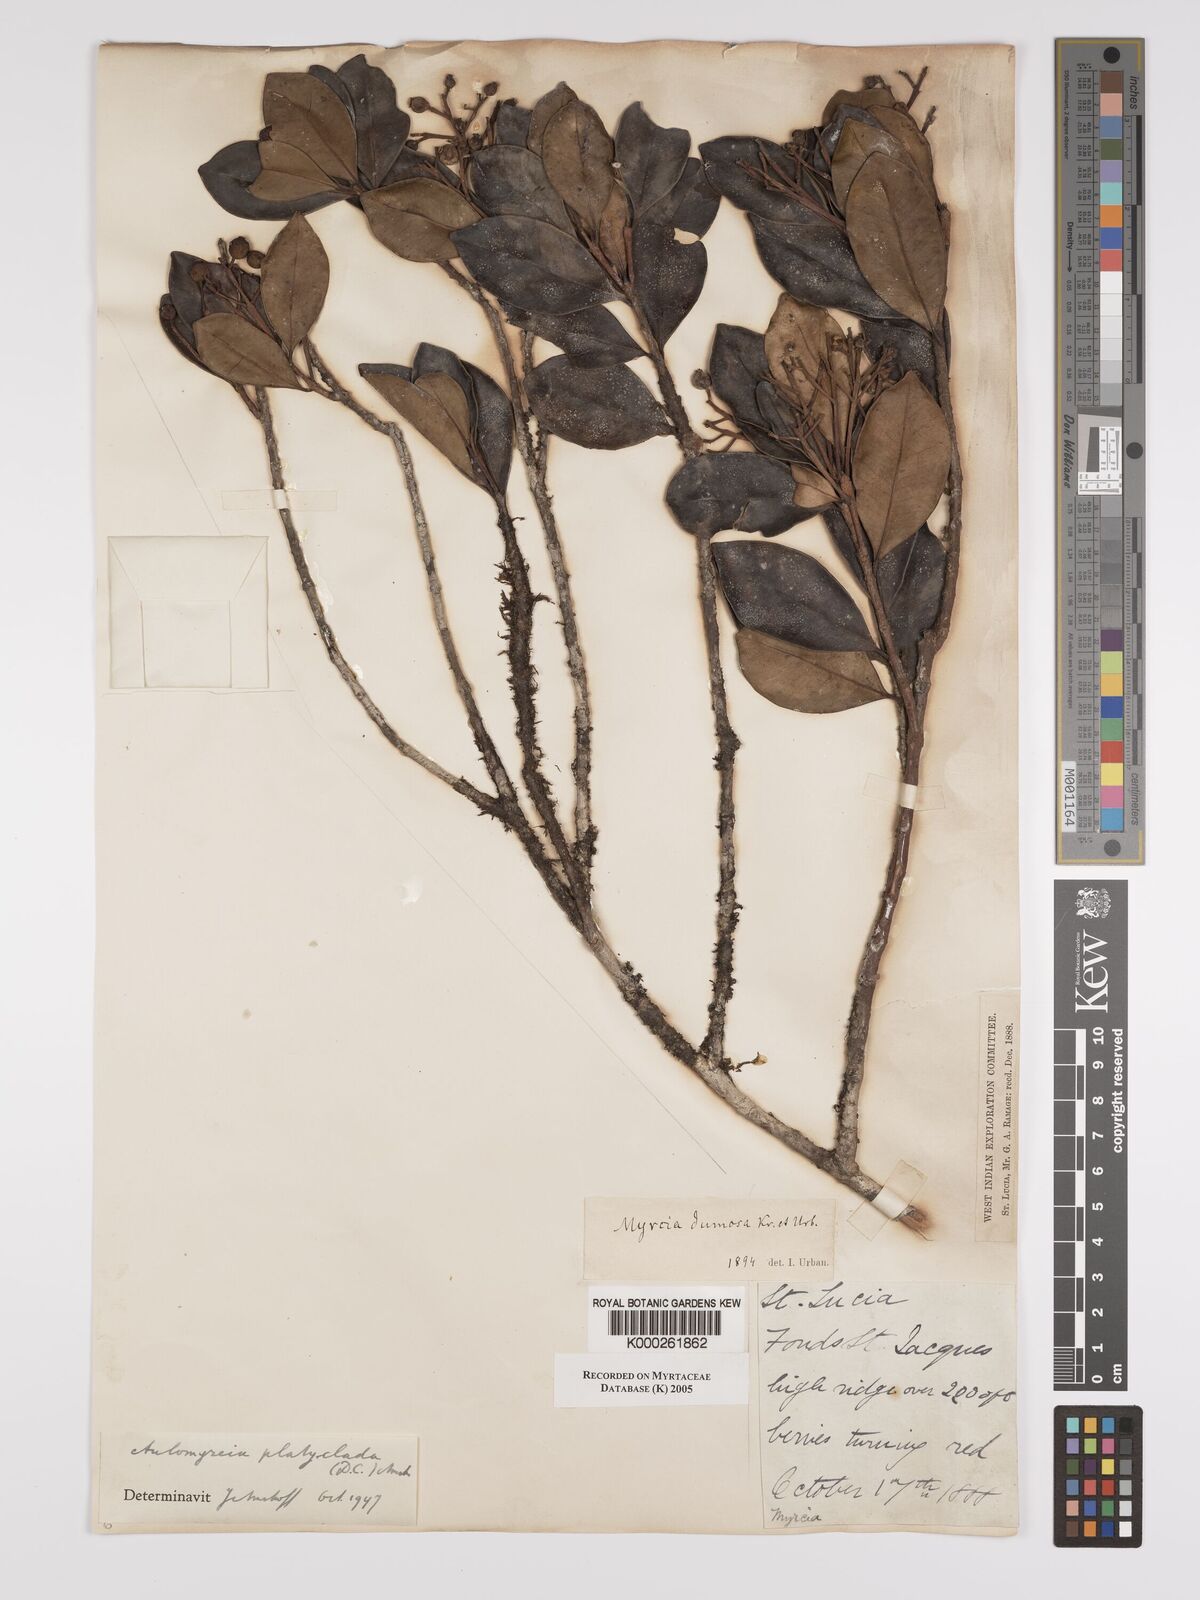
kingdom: Plantae
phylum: Tracheophyta
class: Magnoliopsida
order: Myrtales
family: Myrtaceae
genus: Myrcia
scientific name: Myrcia platyclada
